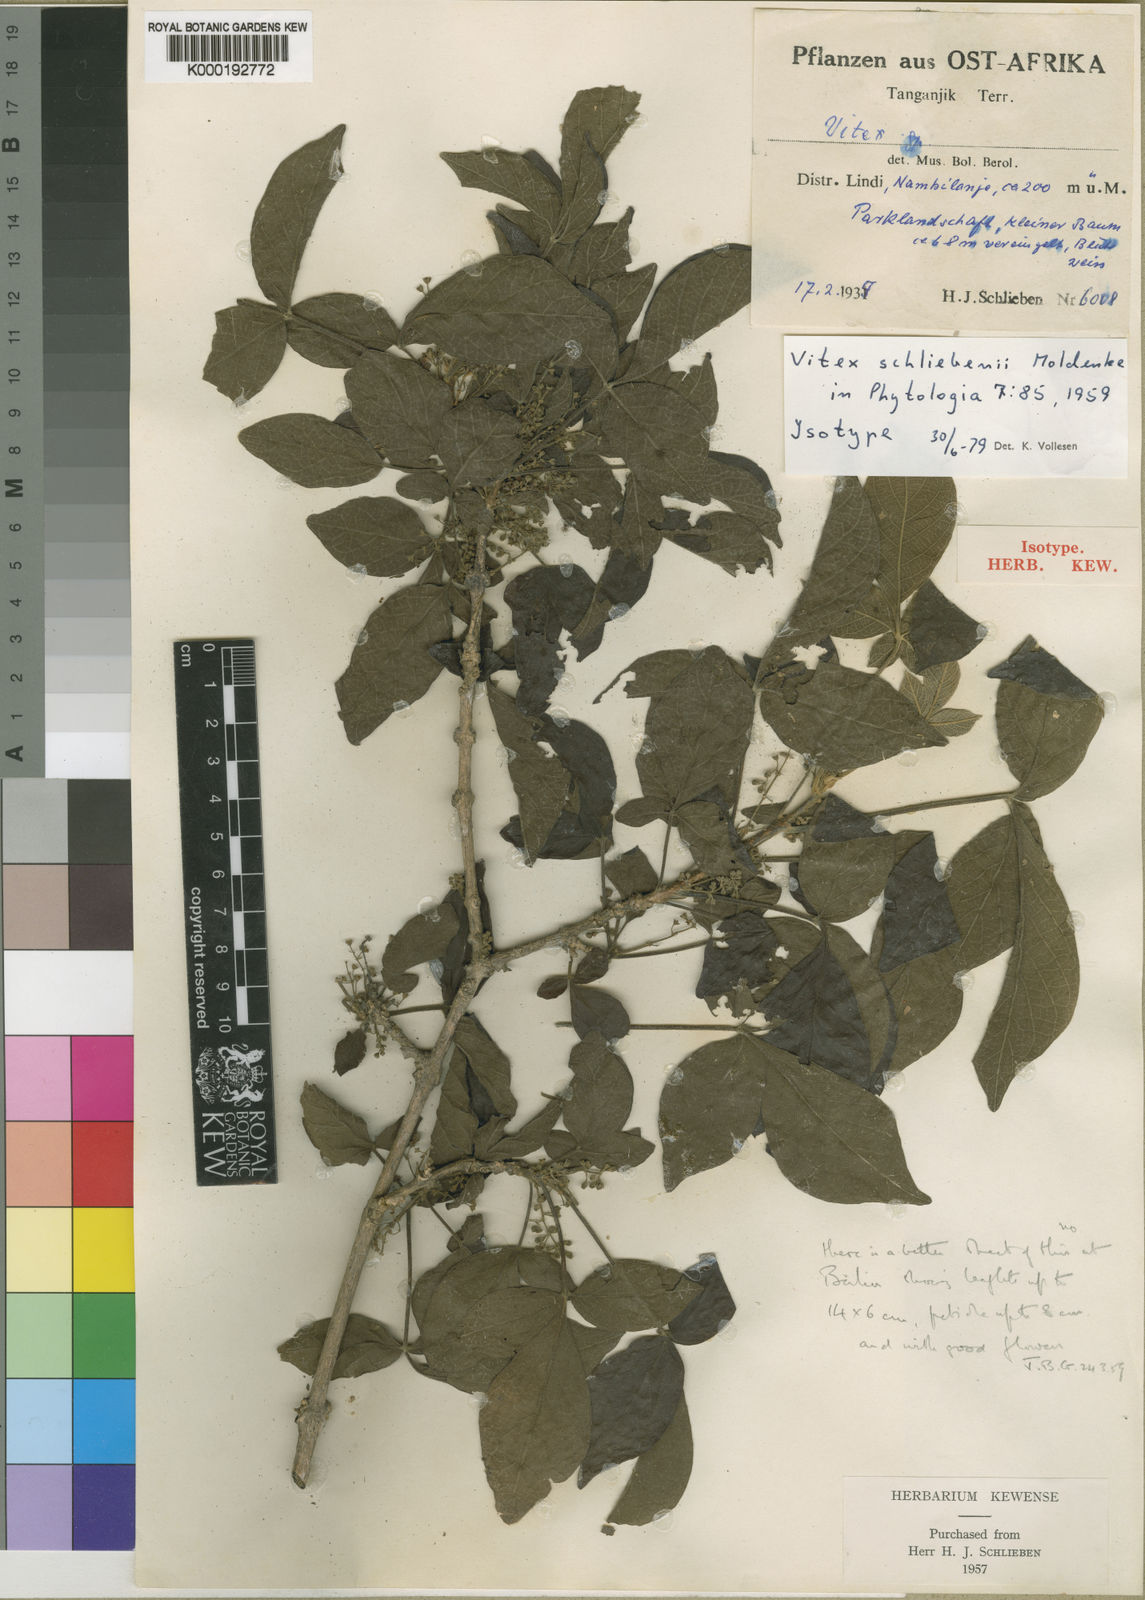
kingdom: Plantae
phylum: Tracheophyta
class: Magnoliopsida
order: Lamiales
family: Lamiaceae
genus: Vitex
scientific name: Vitex schliebenii
